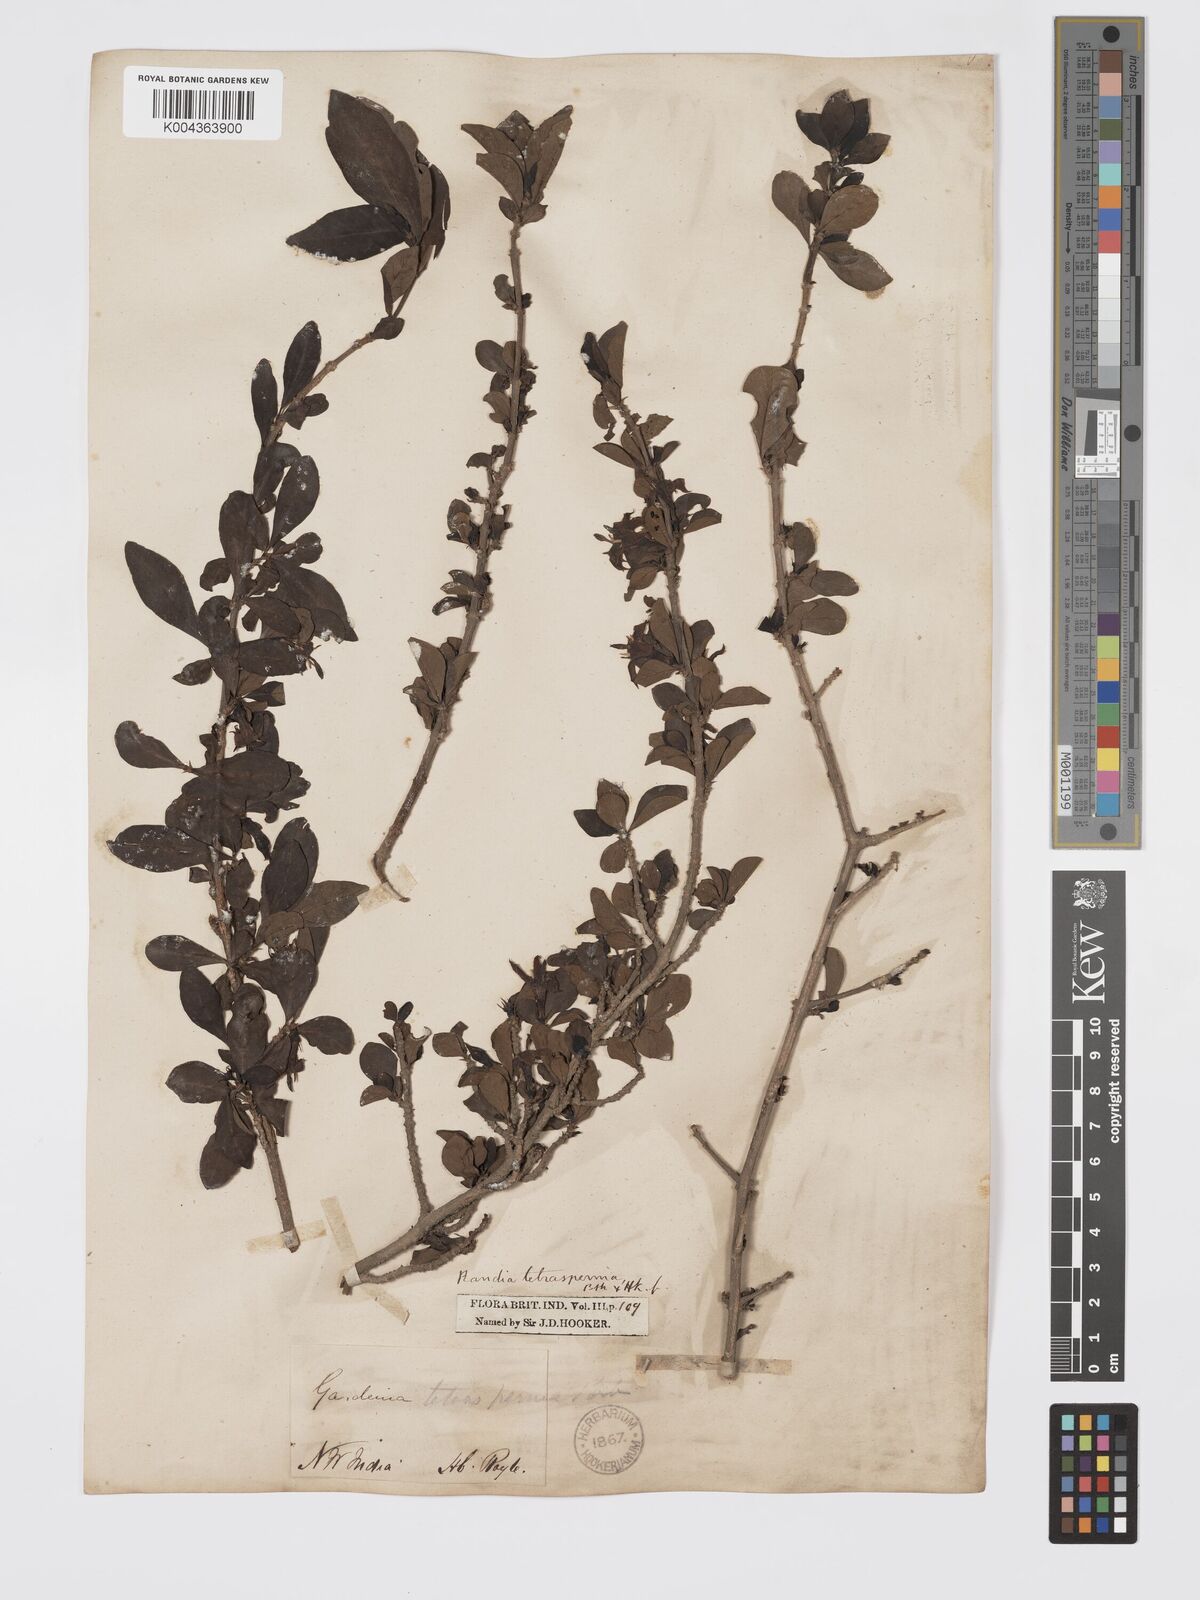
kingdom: Plantae
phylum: Tracheophyta
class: Magnoliopsida
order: Gentianales
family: Rubiaceae
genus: Himalrandia
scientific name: Himalrandia tetrasperma
